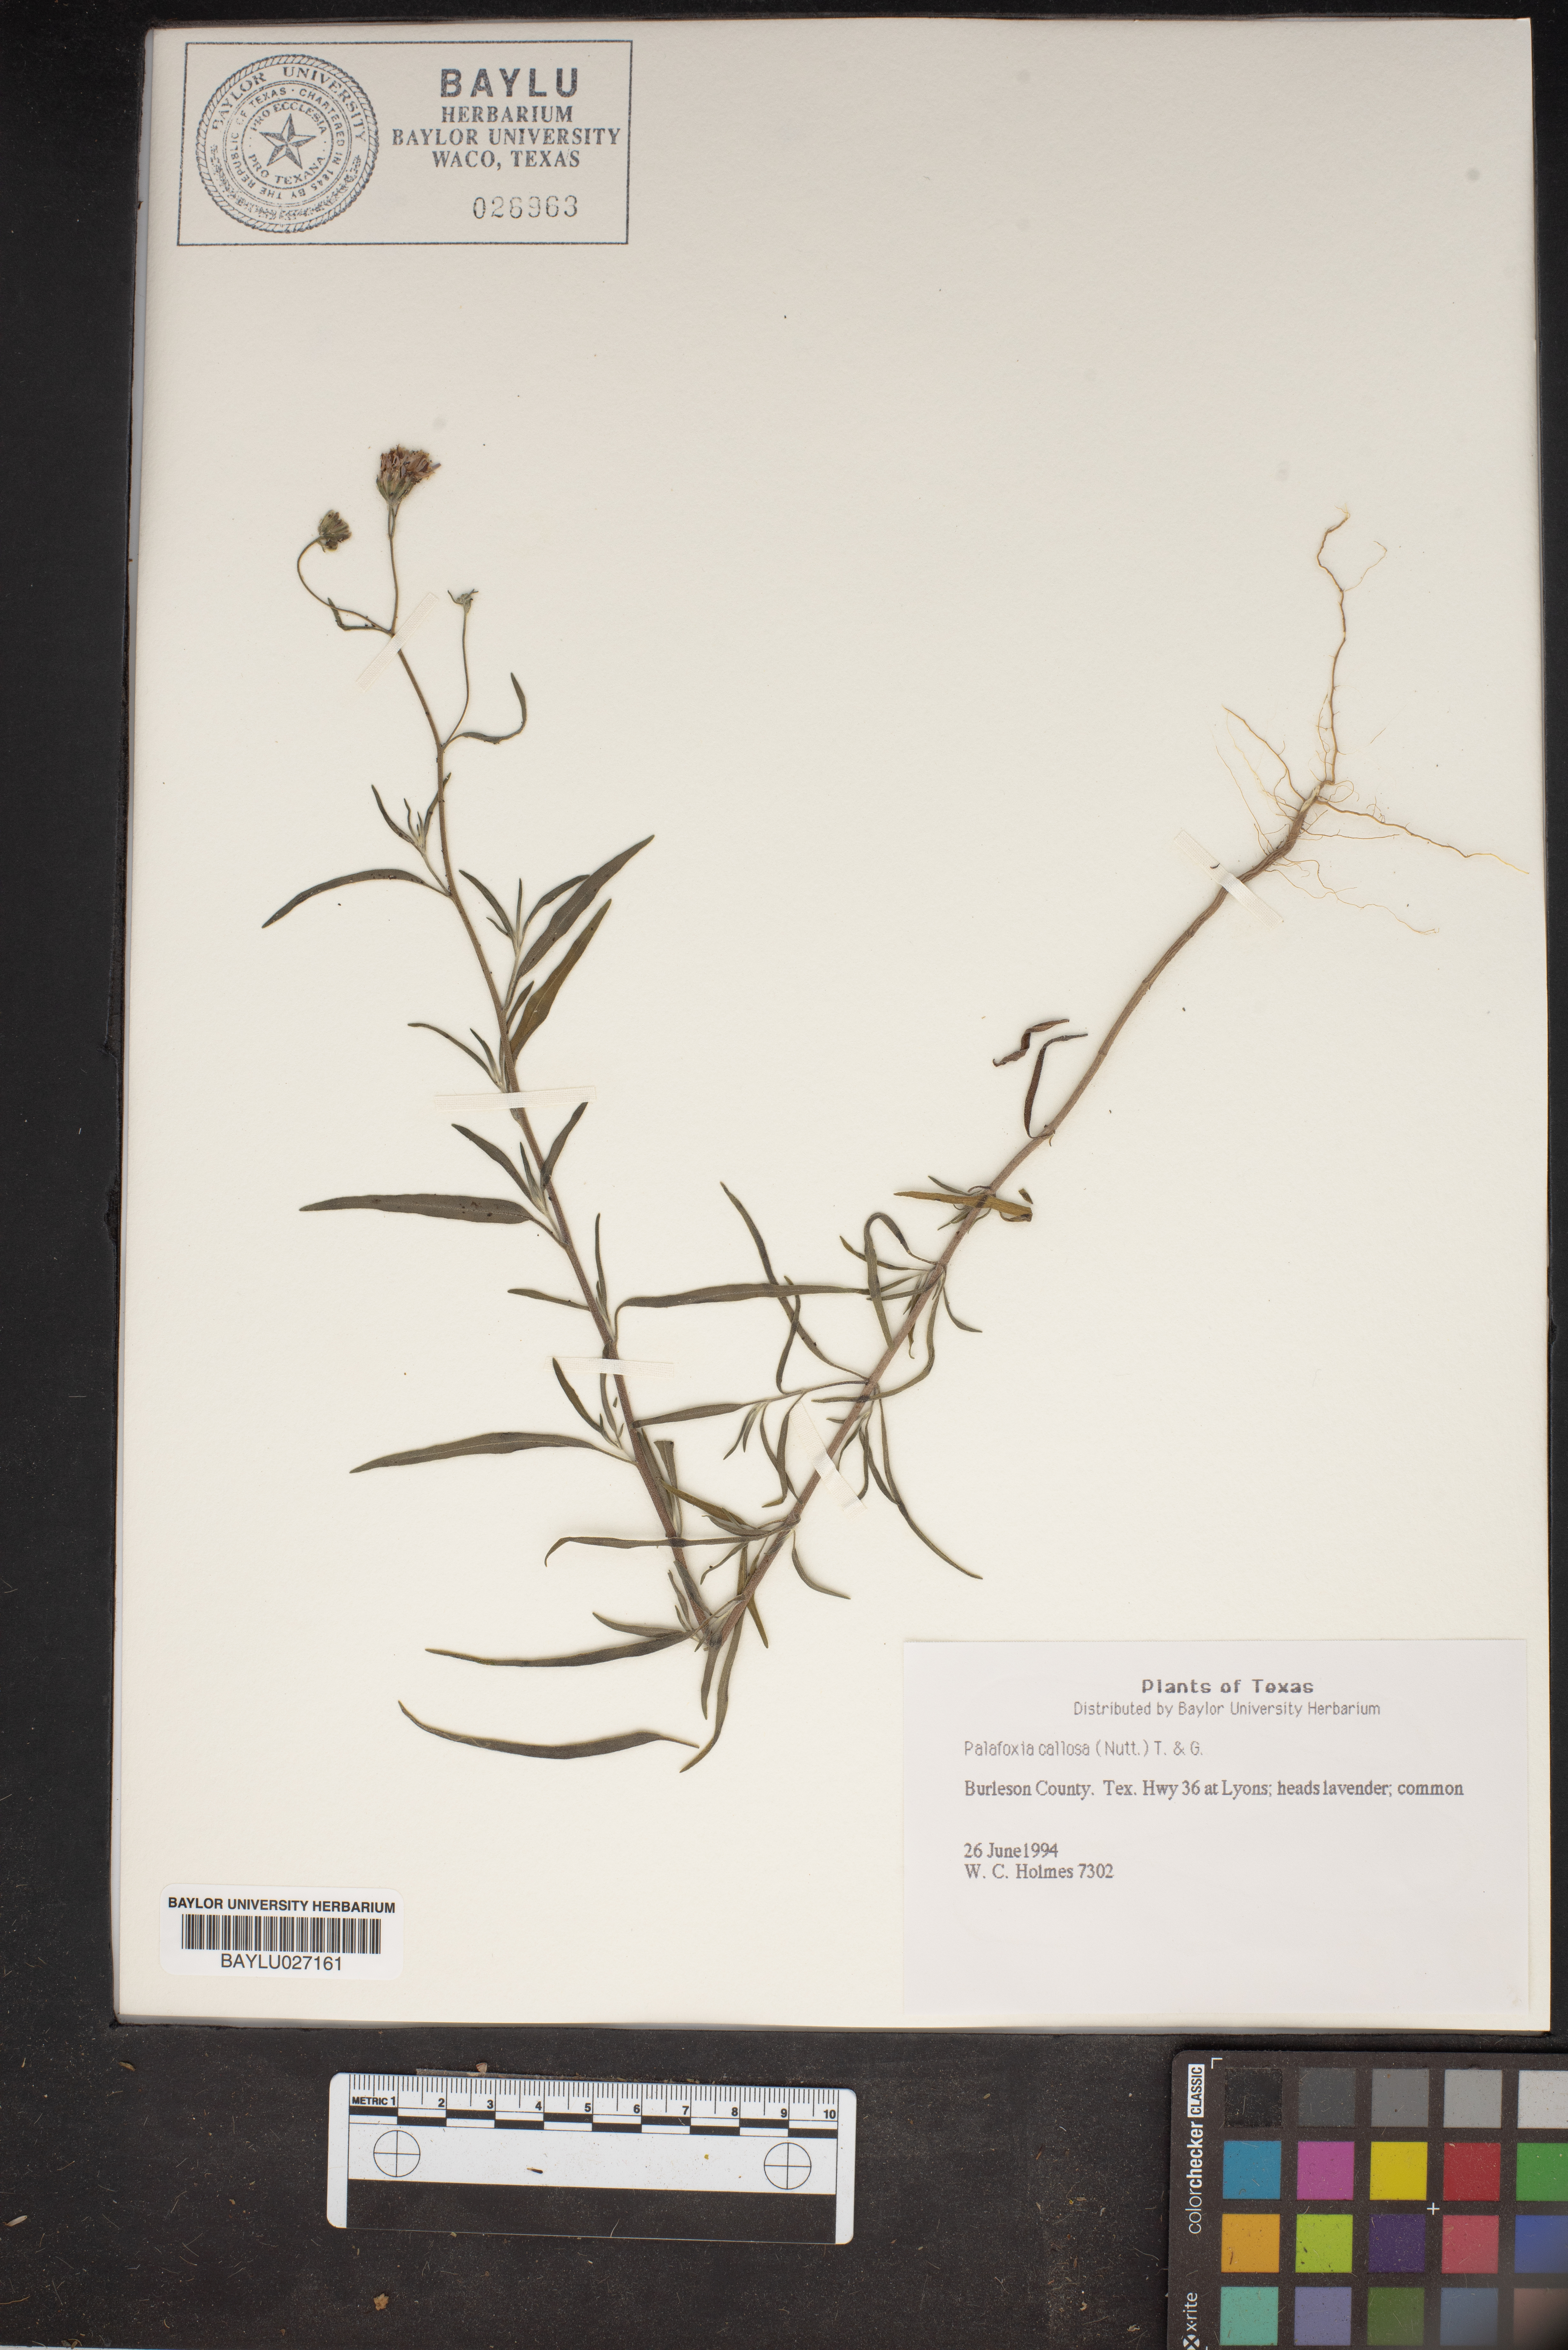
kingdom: Plantae
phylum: Tracheophyta
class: Magnoliopsida
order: Asterales
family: Asteraceae
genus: Palafoxia
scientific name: Palafoxia callosa
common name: Small palafox
